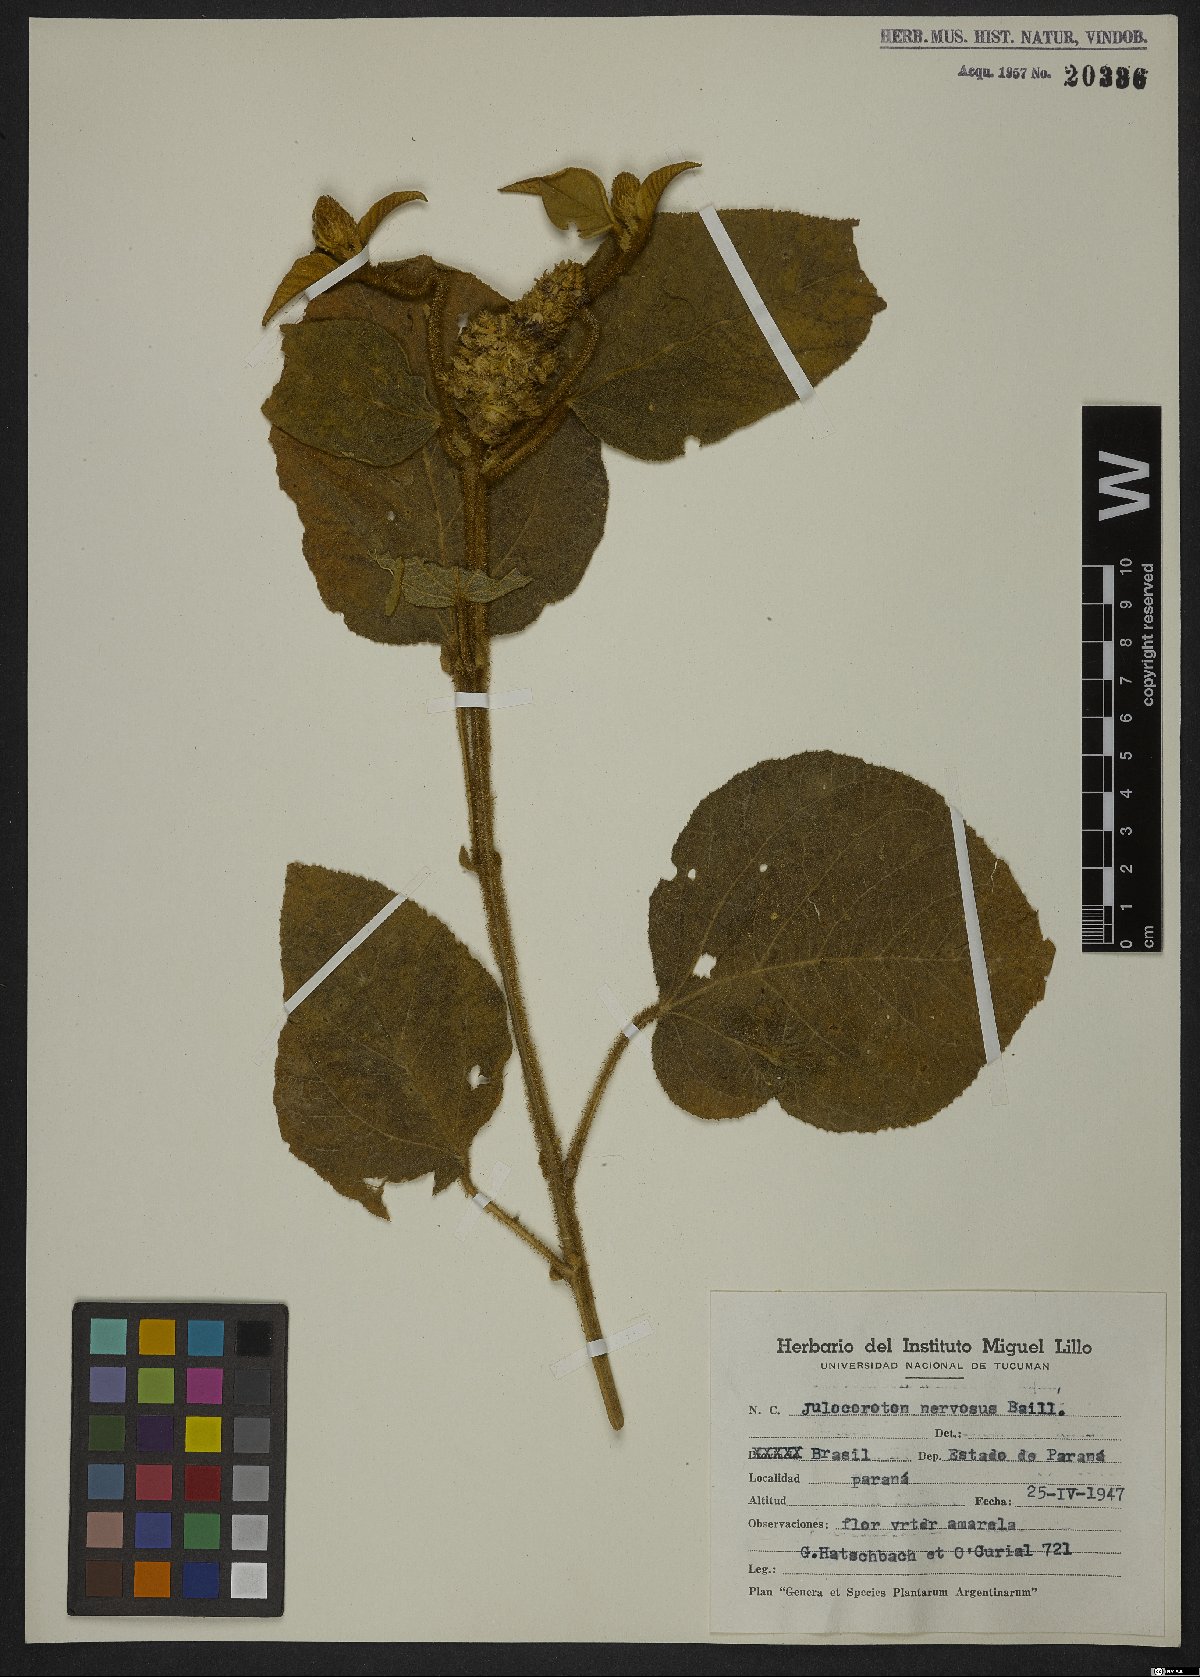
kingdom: Plantae
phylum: Tracheophyta
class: Magnoliopsida
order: Malpighiales
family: Euphorbiaceae
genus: Croton
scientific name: Croton calonervosus
